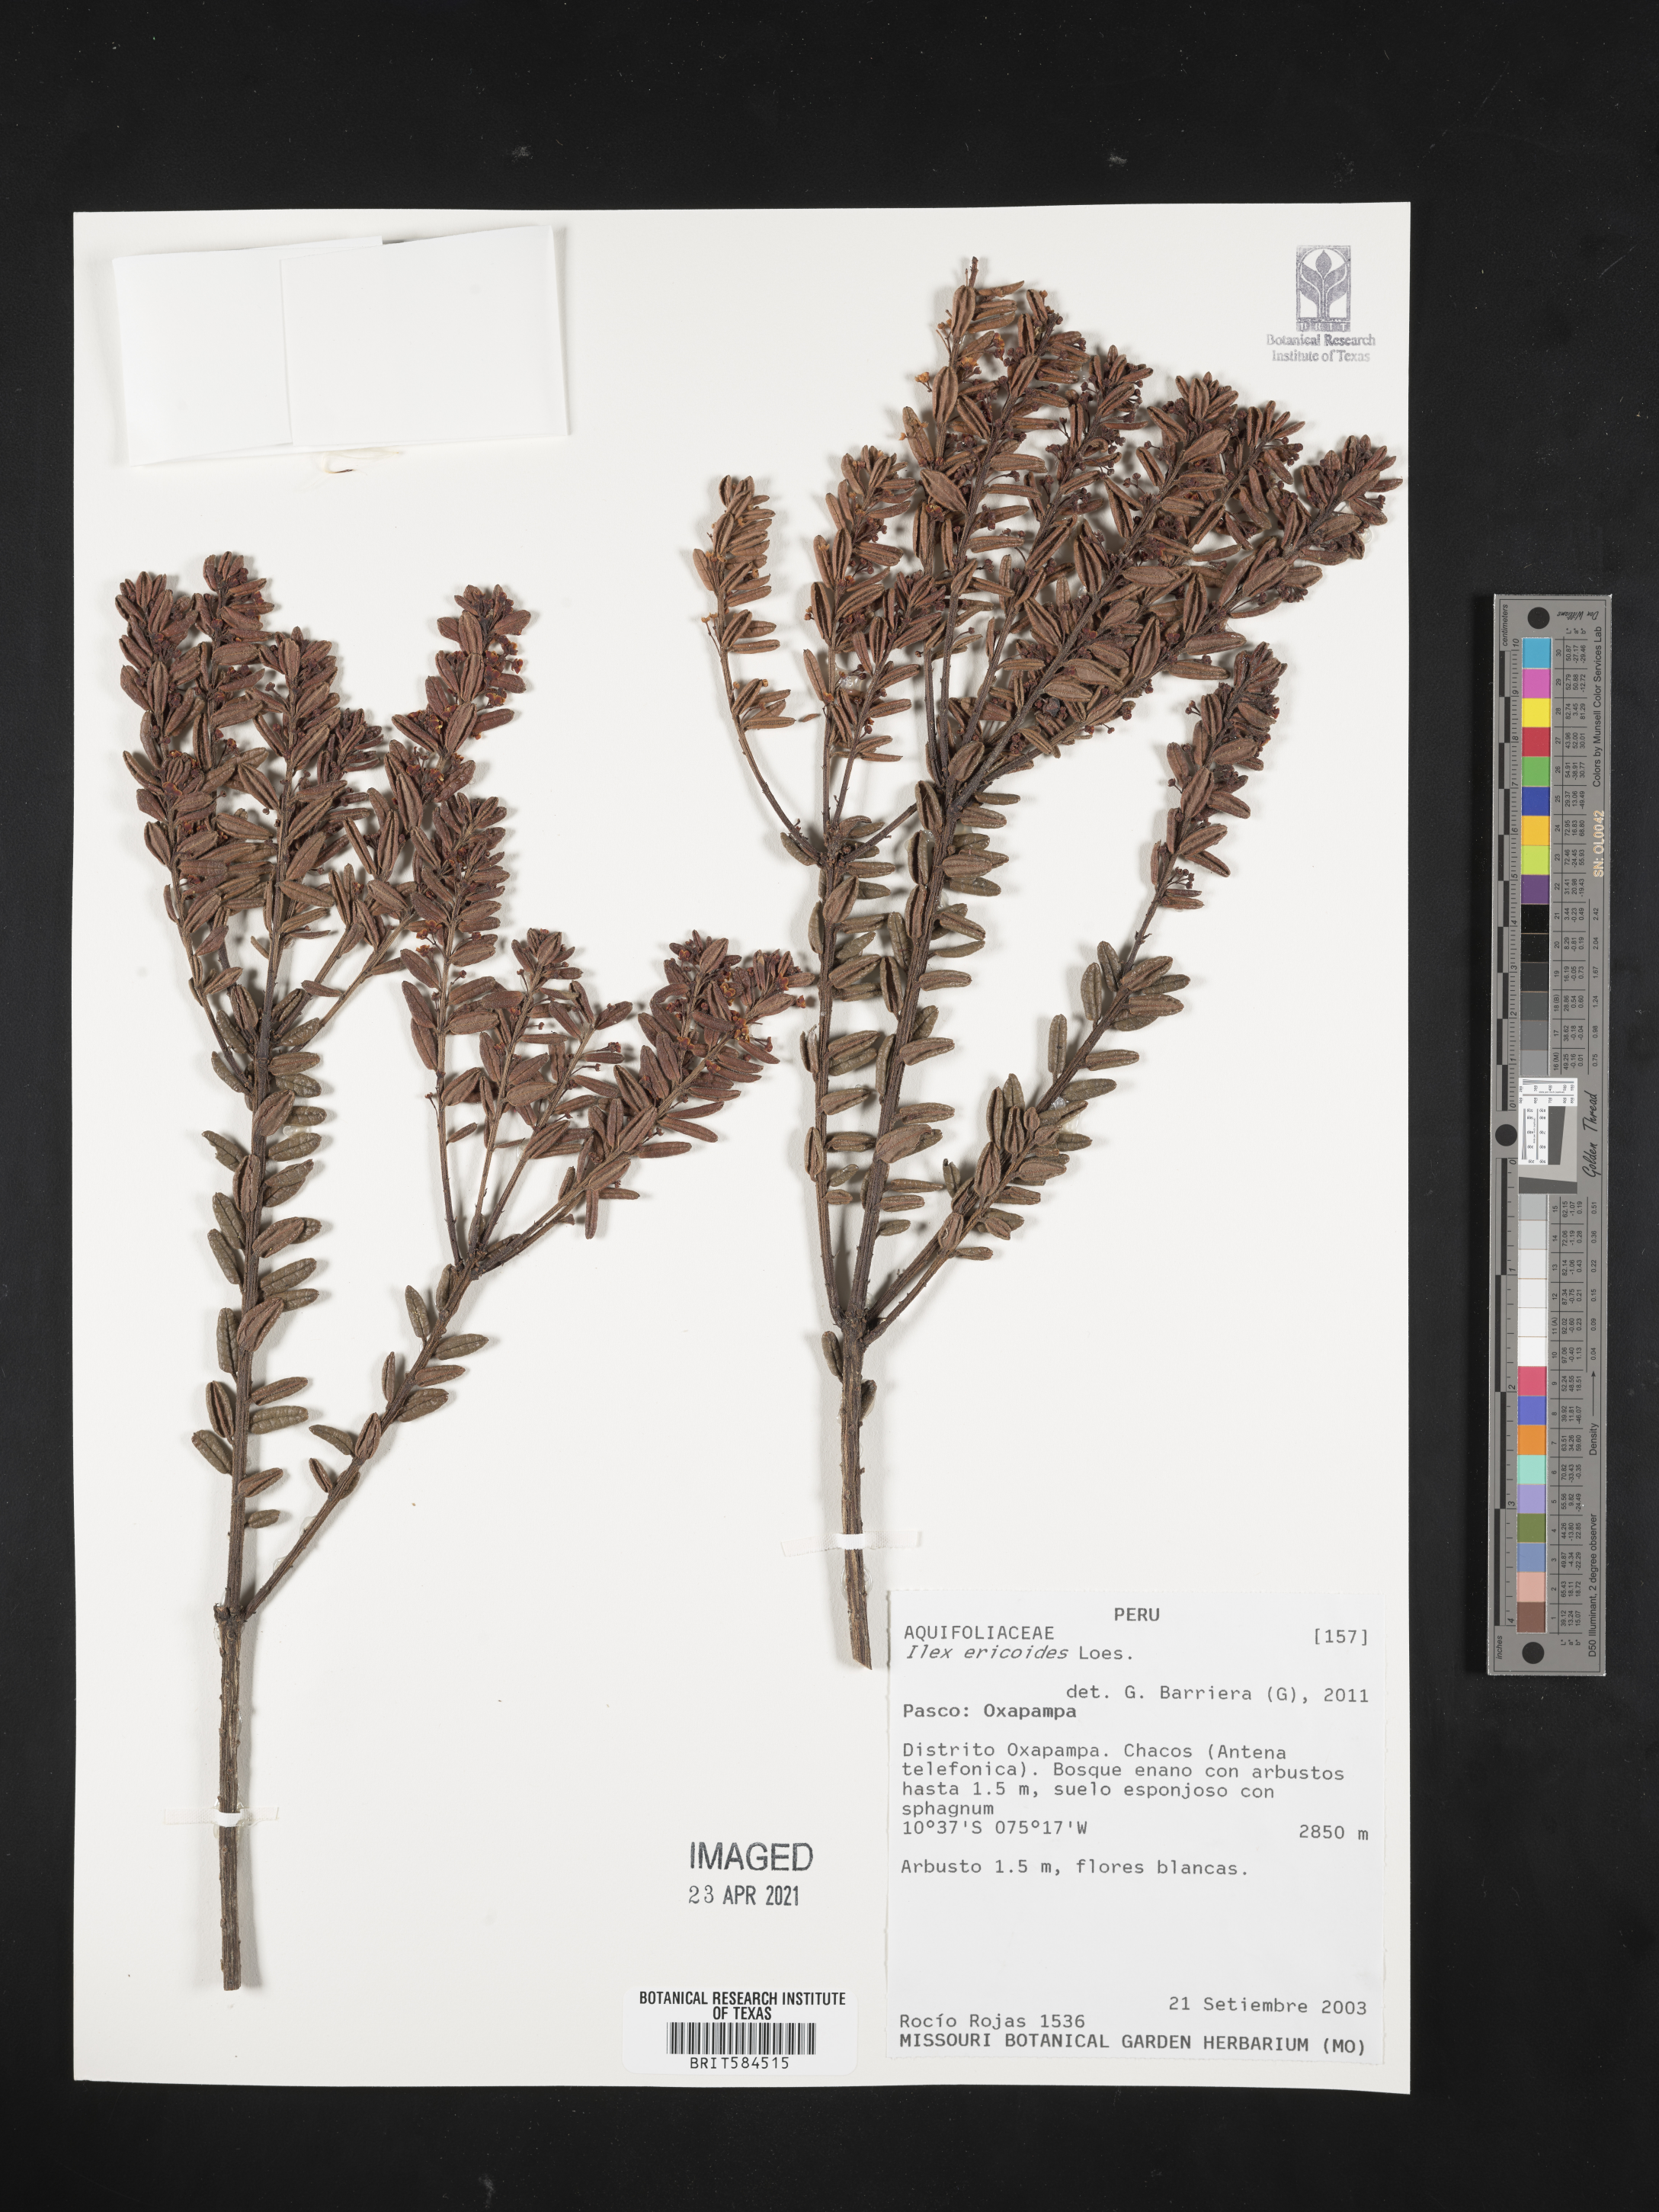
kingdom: Plantae
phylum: Tracheophyta
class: Magnoliopsida
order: Aquifoliales
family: Aquifoliaceae
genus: Ilex
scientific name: Ilex ericoides
